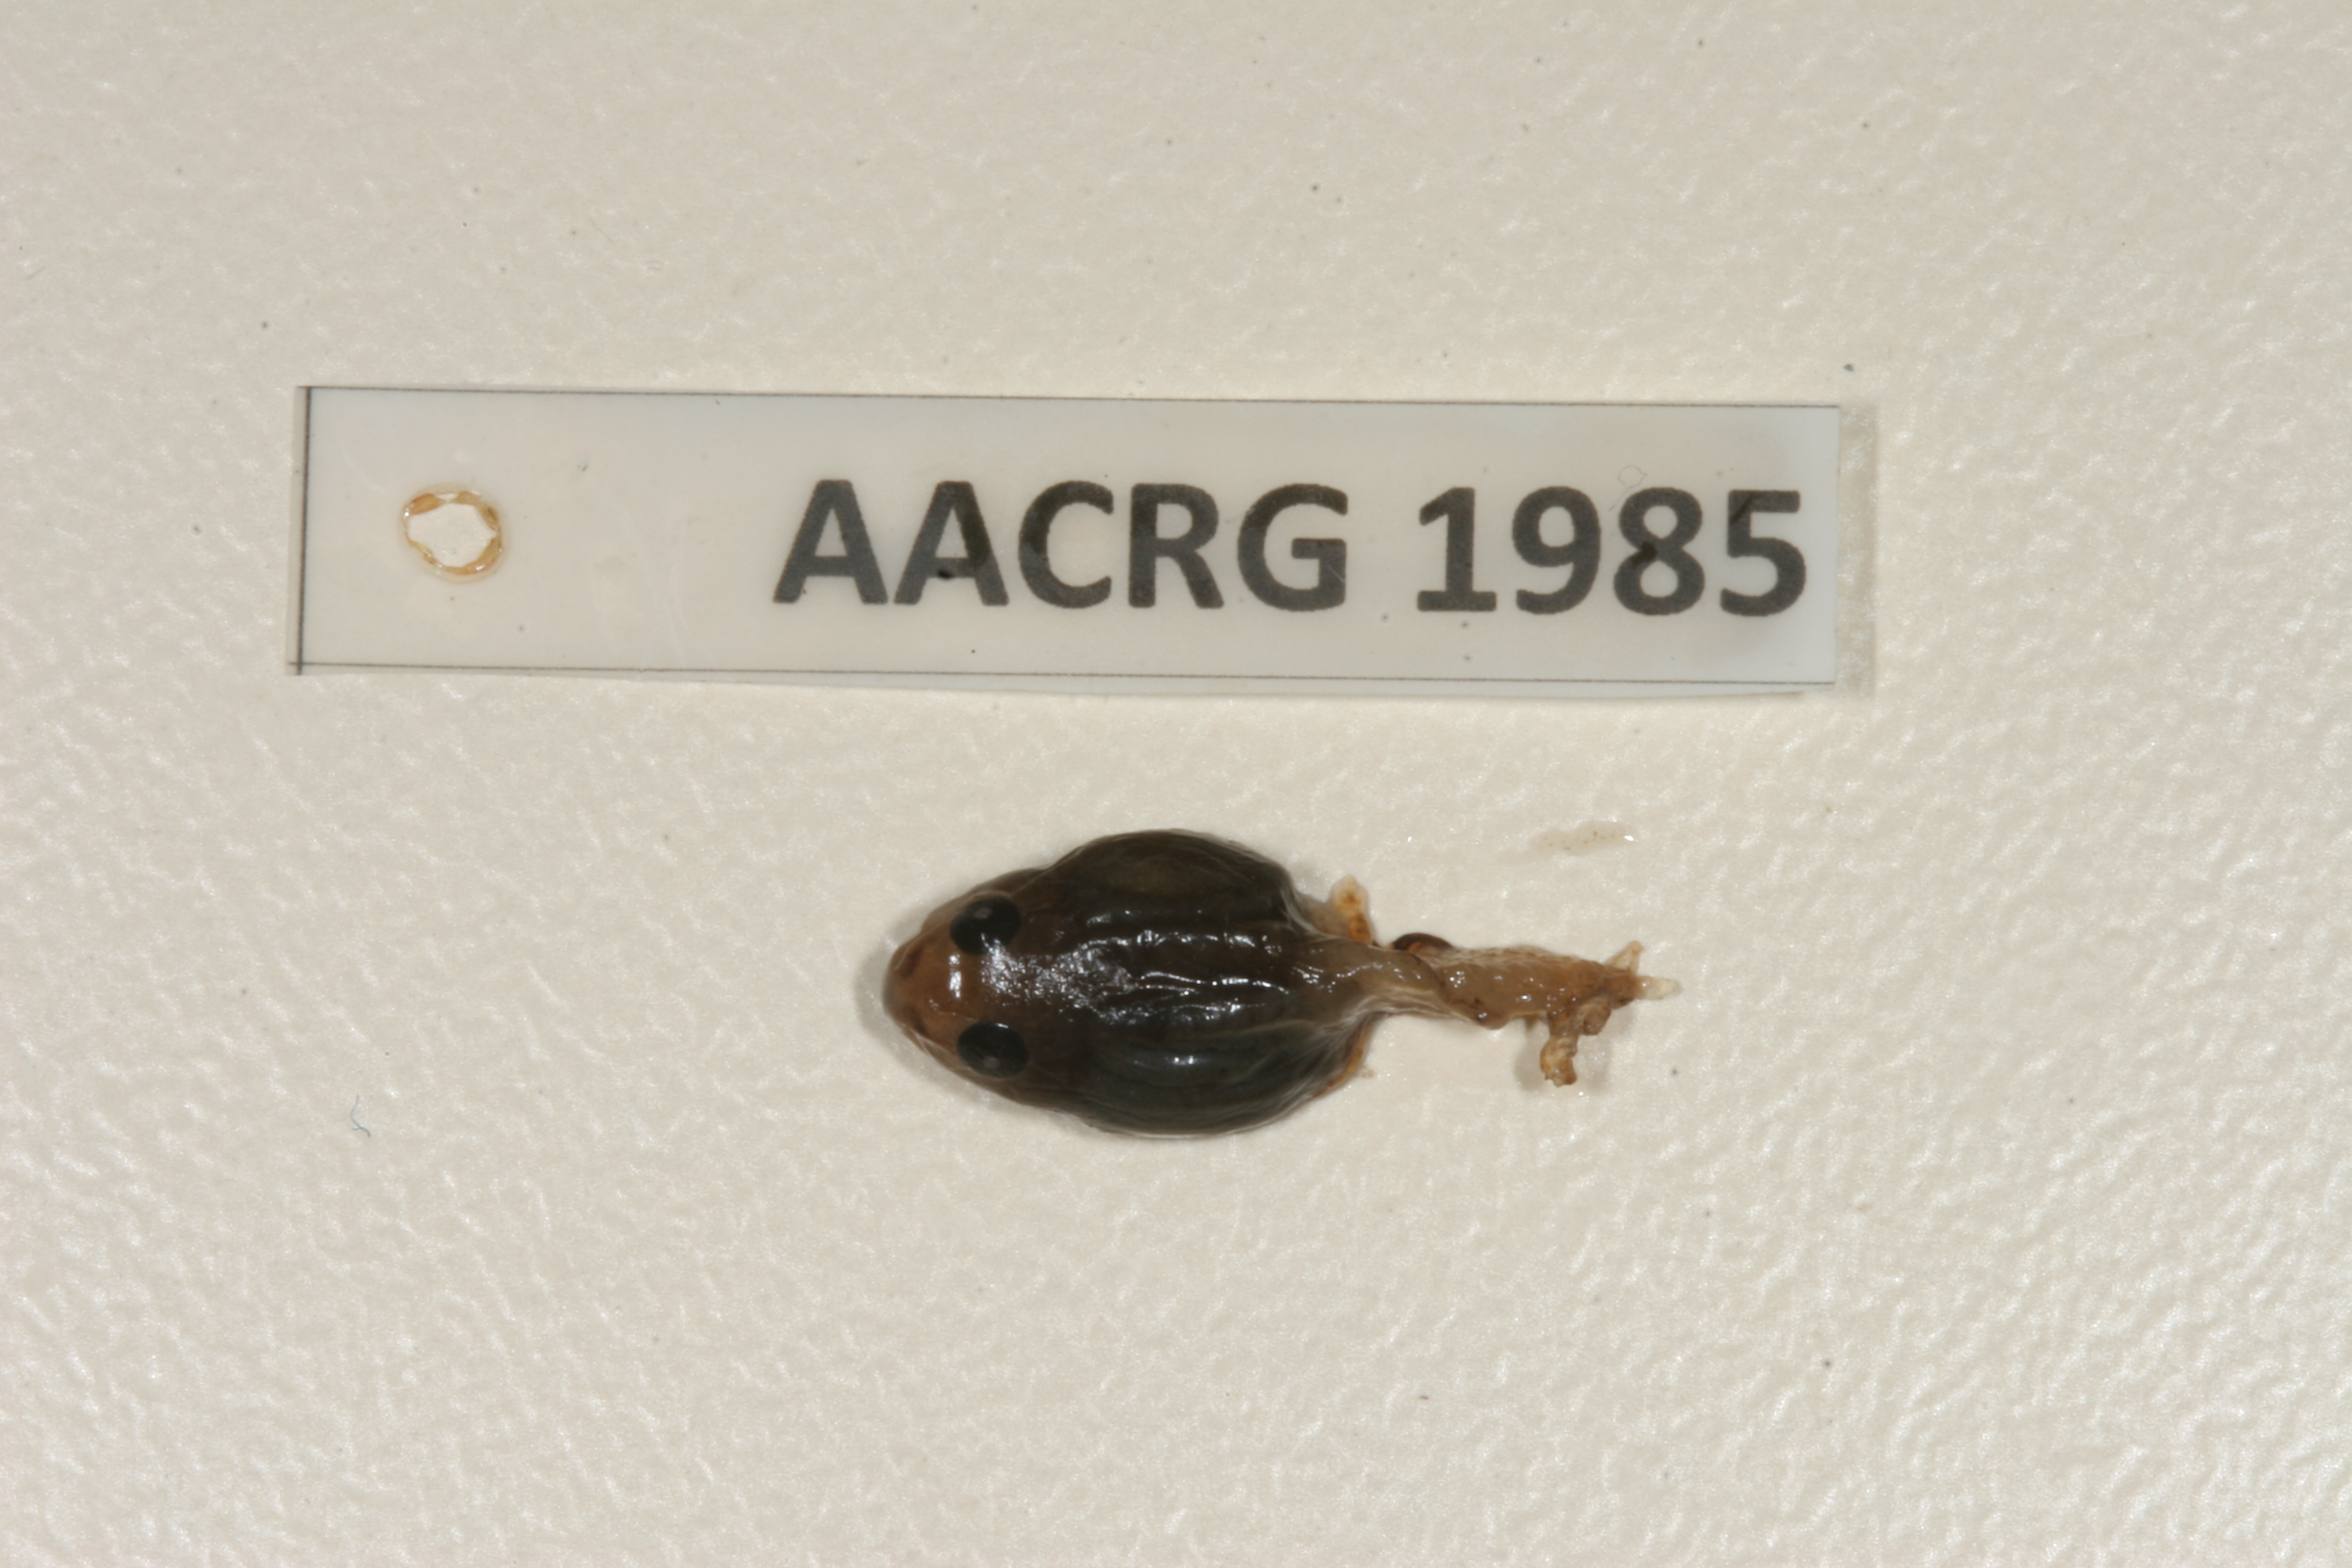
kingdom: Animalia
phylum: Chordata
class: Amphibia
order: Anura
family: Phrynobatrachidae
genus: Phrynobatrachus
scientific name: Phrynobatrachus natalensis
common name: Snoring puddle frog
